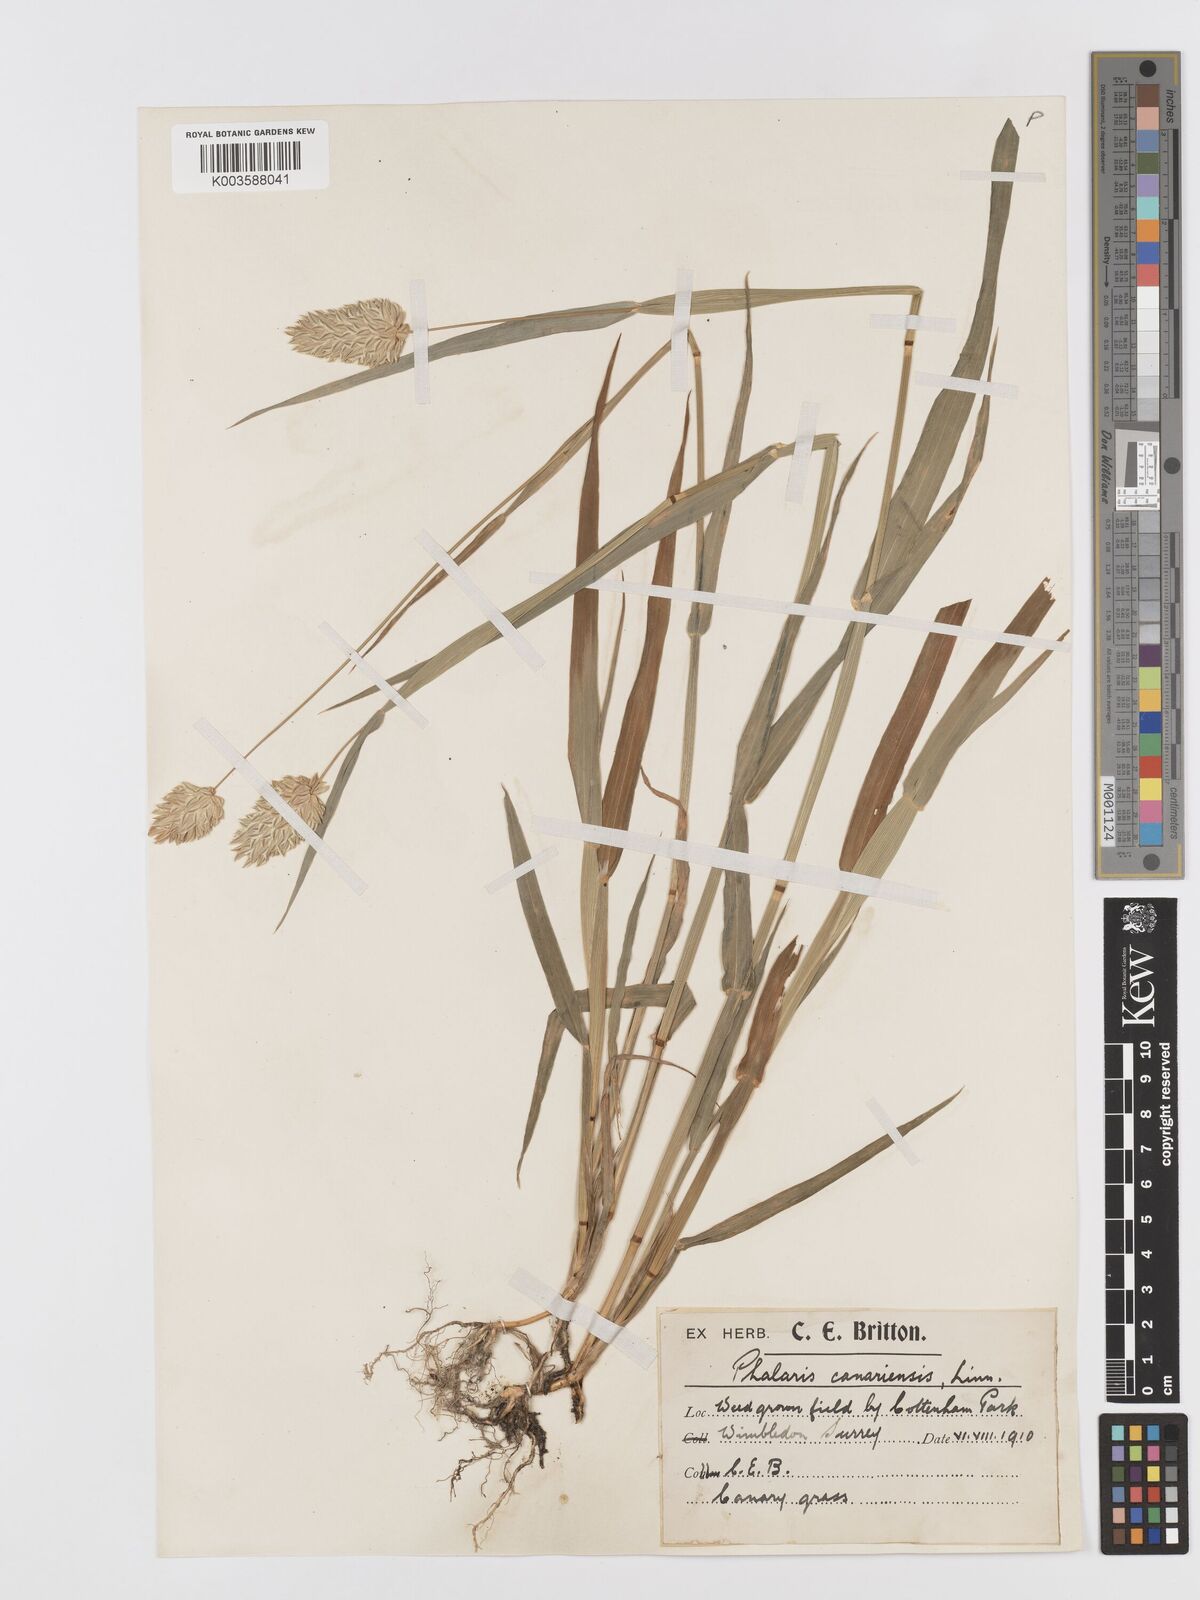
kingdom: Plantae
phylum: Tracheophyta
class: Liliopsida
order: Poales
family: Poaceae
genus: Phalaris
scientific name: Phalaris canariensis
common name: Annual canarygrass
